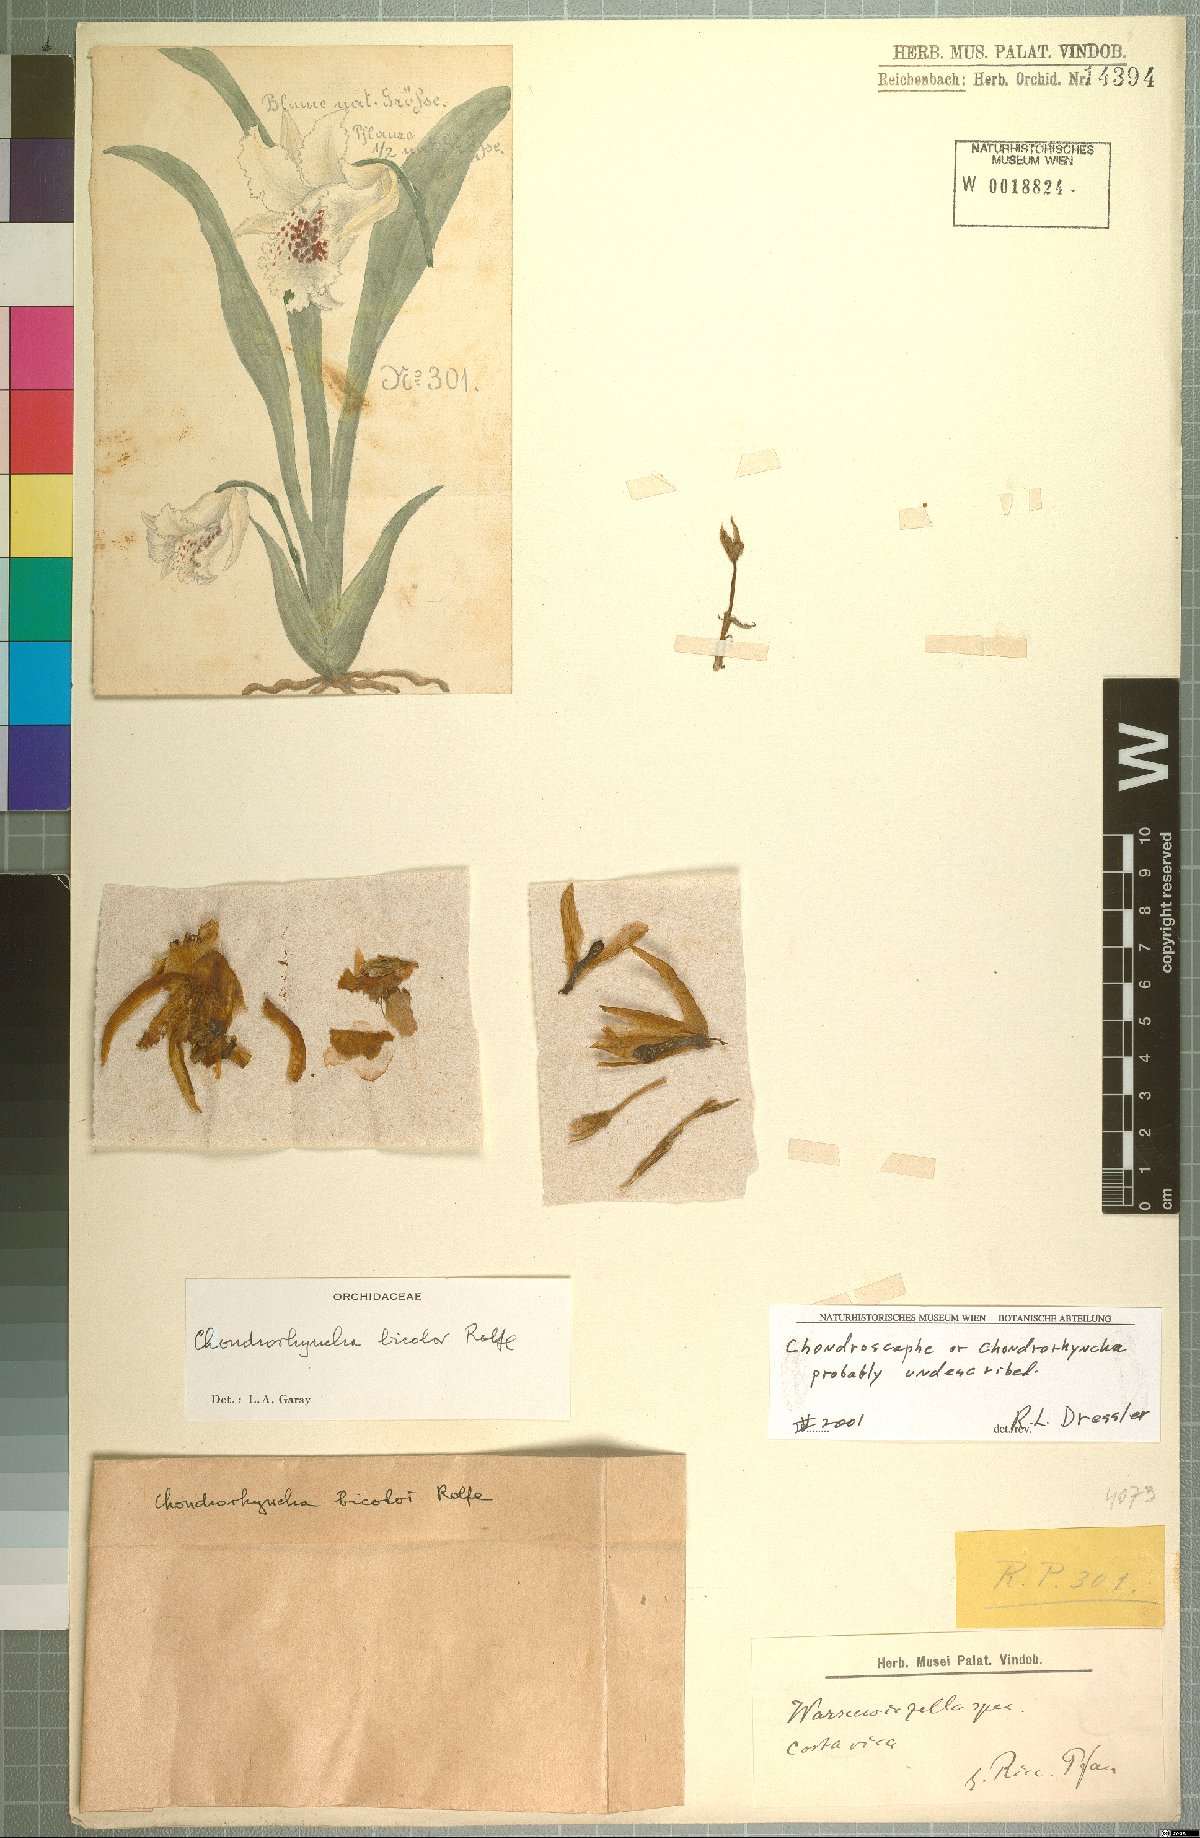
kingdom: Plantae
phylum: Tracheophyta
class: Liliopsida
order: Asparagales
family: Orchidaceae
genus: Chondrorhyncha
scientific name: Chondrorhyncha
